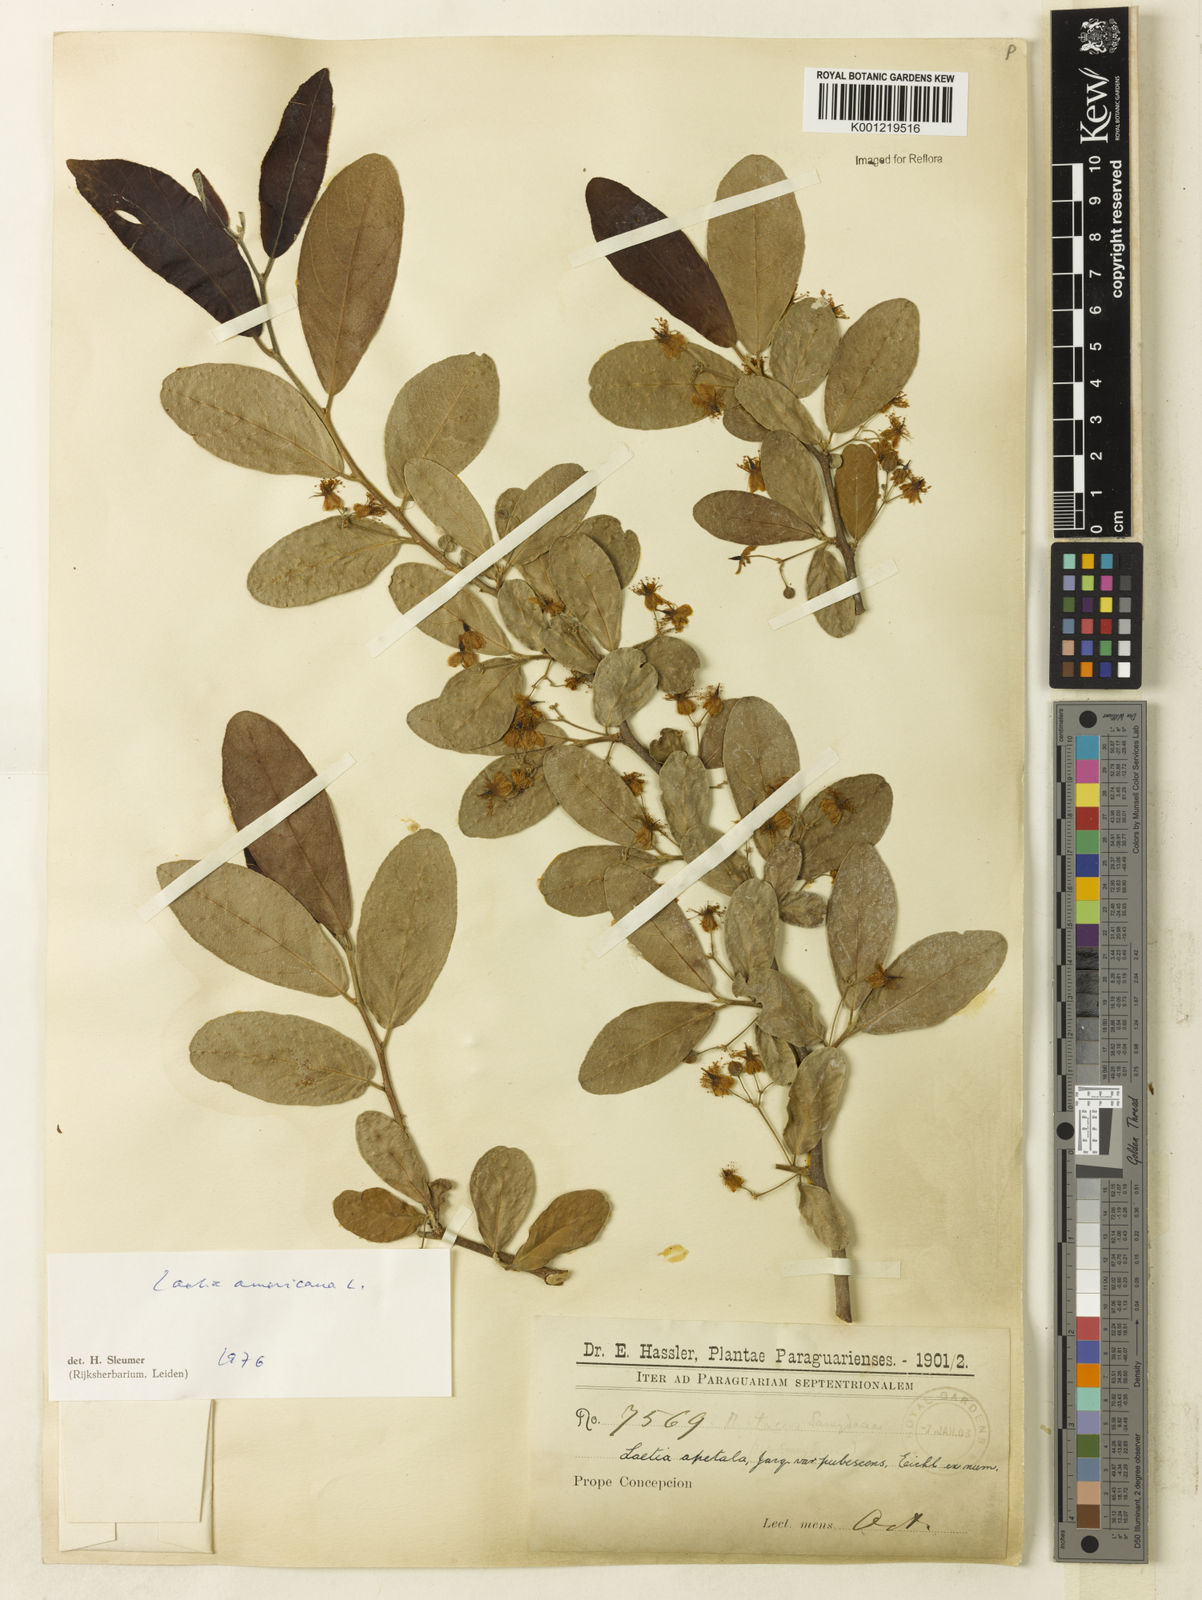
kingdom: Plantae
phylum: Tracheophyta
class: Magnoliopsida
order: Malpighiales
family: Salicaceae
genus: Casearia
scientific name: Casearia americana
